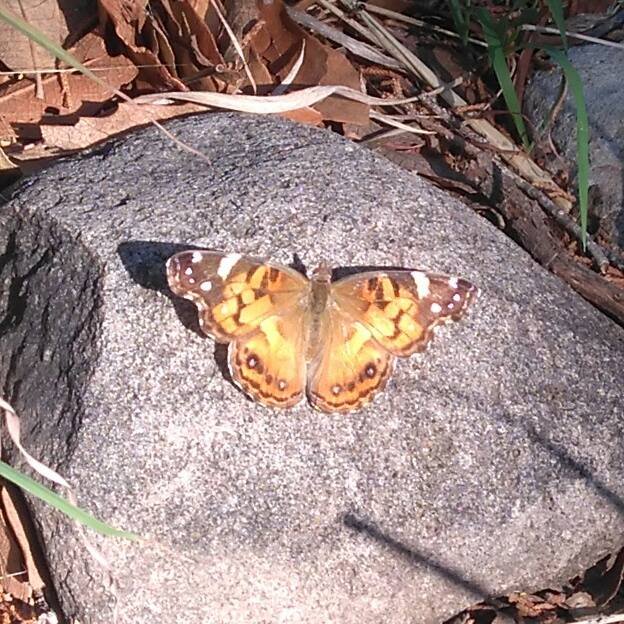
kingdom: Animalia
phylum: Arthropoda
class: Insecta
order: Lepidoptera
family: Nymphalidae
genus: Vanessa
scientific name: Vanessa virginiensis
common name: American Lady
